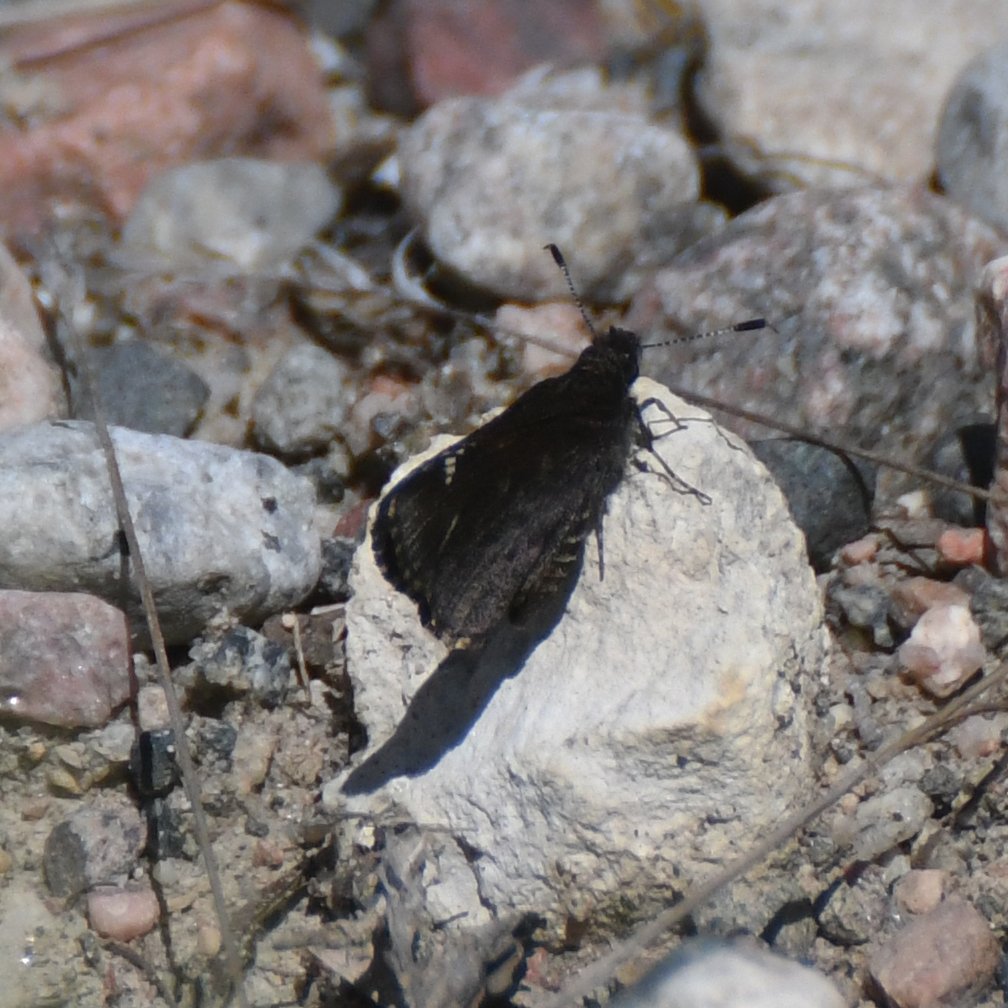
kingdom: Animalia
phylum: Arthropoda
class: Insecta
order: Lepidoptera
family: Hesperiidae
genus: Mastor
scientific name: Mastor vialis
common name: Common Roadside-Skipper
